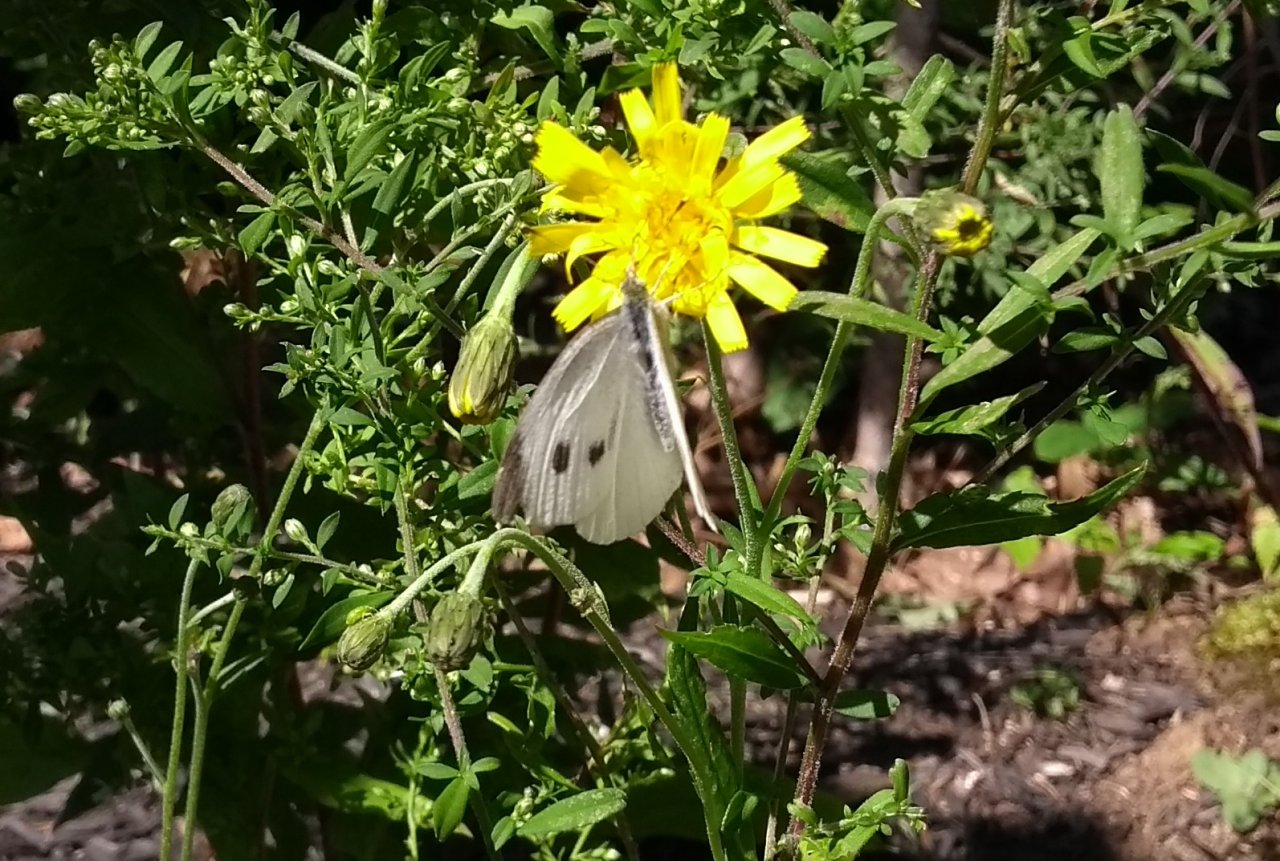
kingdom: Animalia
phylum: Arthropoda
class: Insecta
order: Lepidoptera
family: Pieridae
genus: Pieris
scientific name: Pieris rapae
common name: Cabbage White
